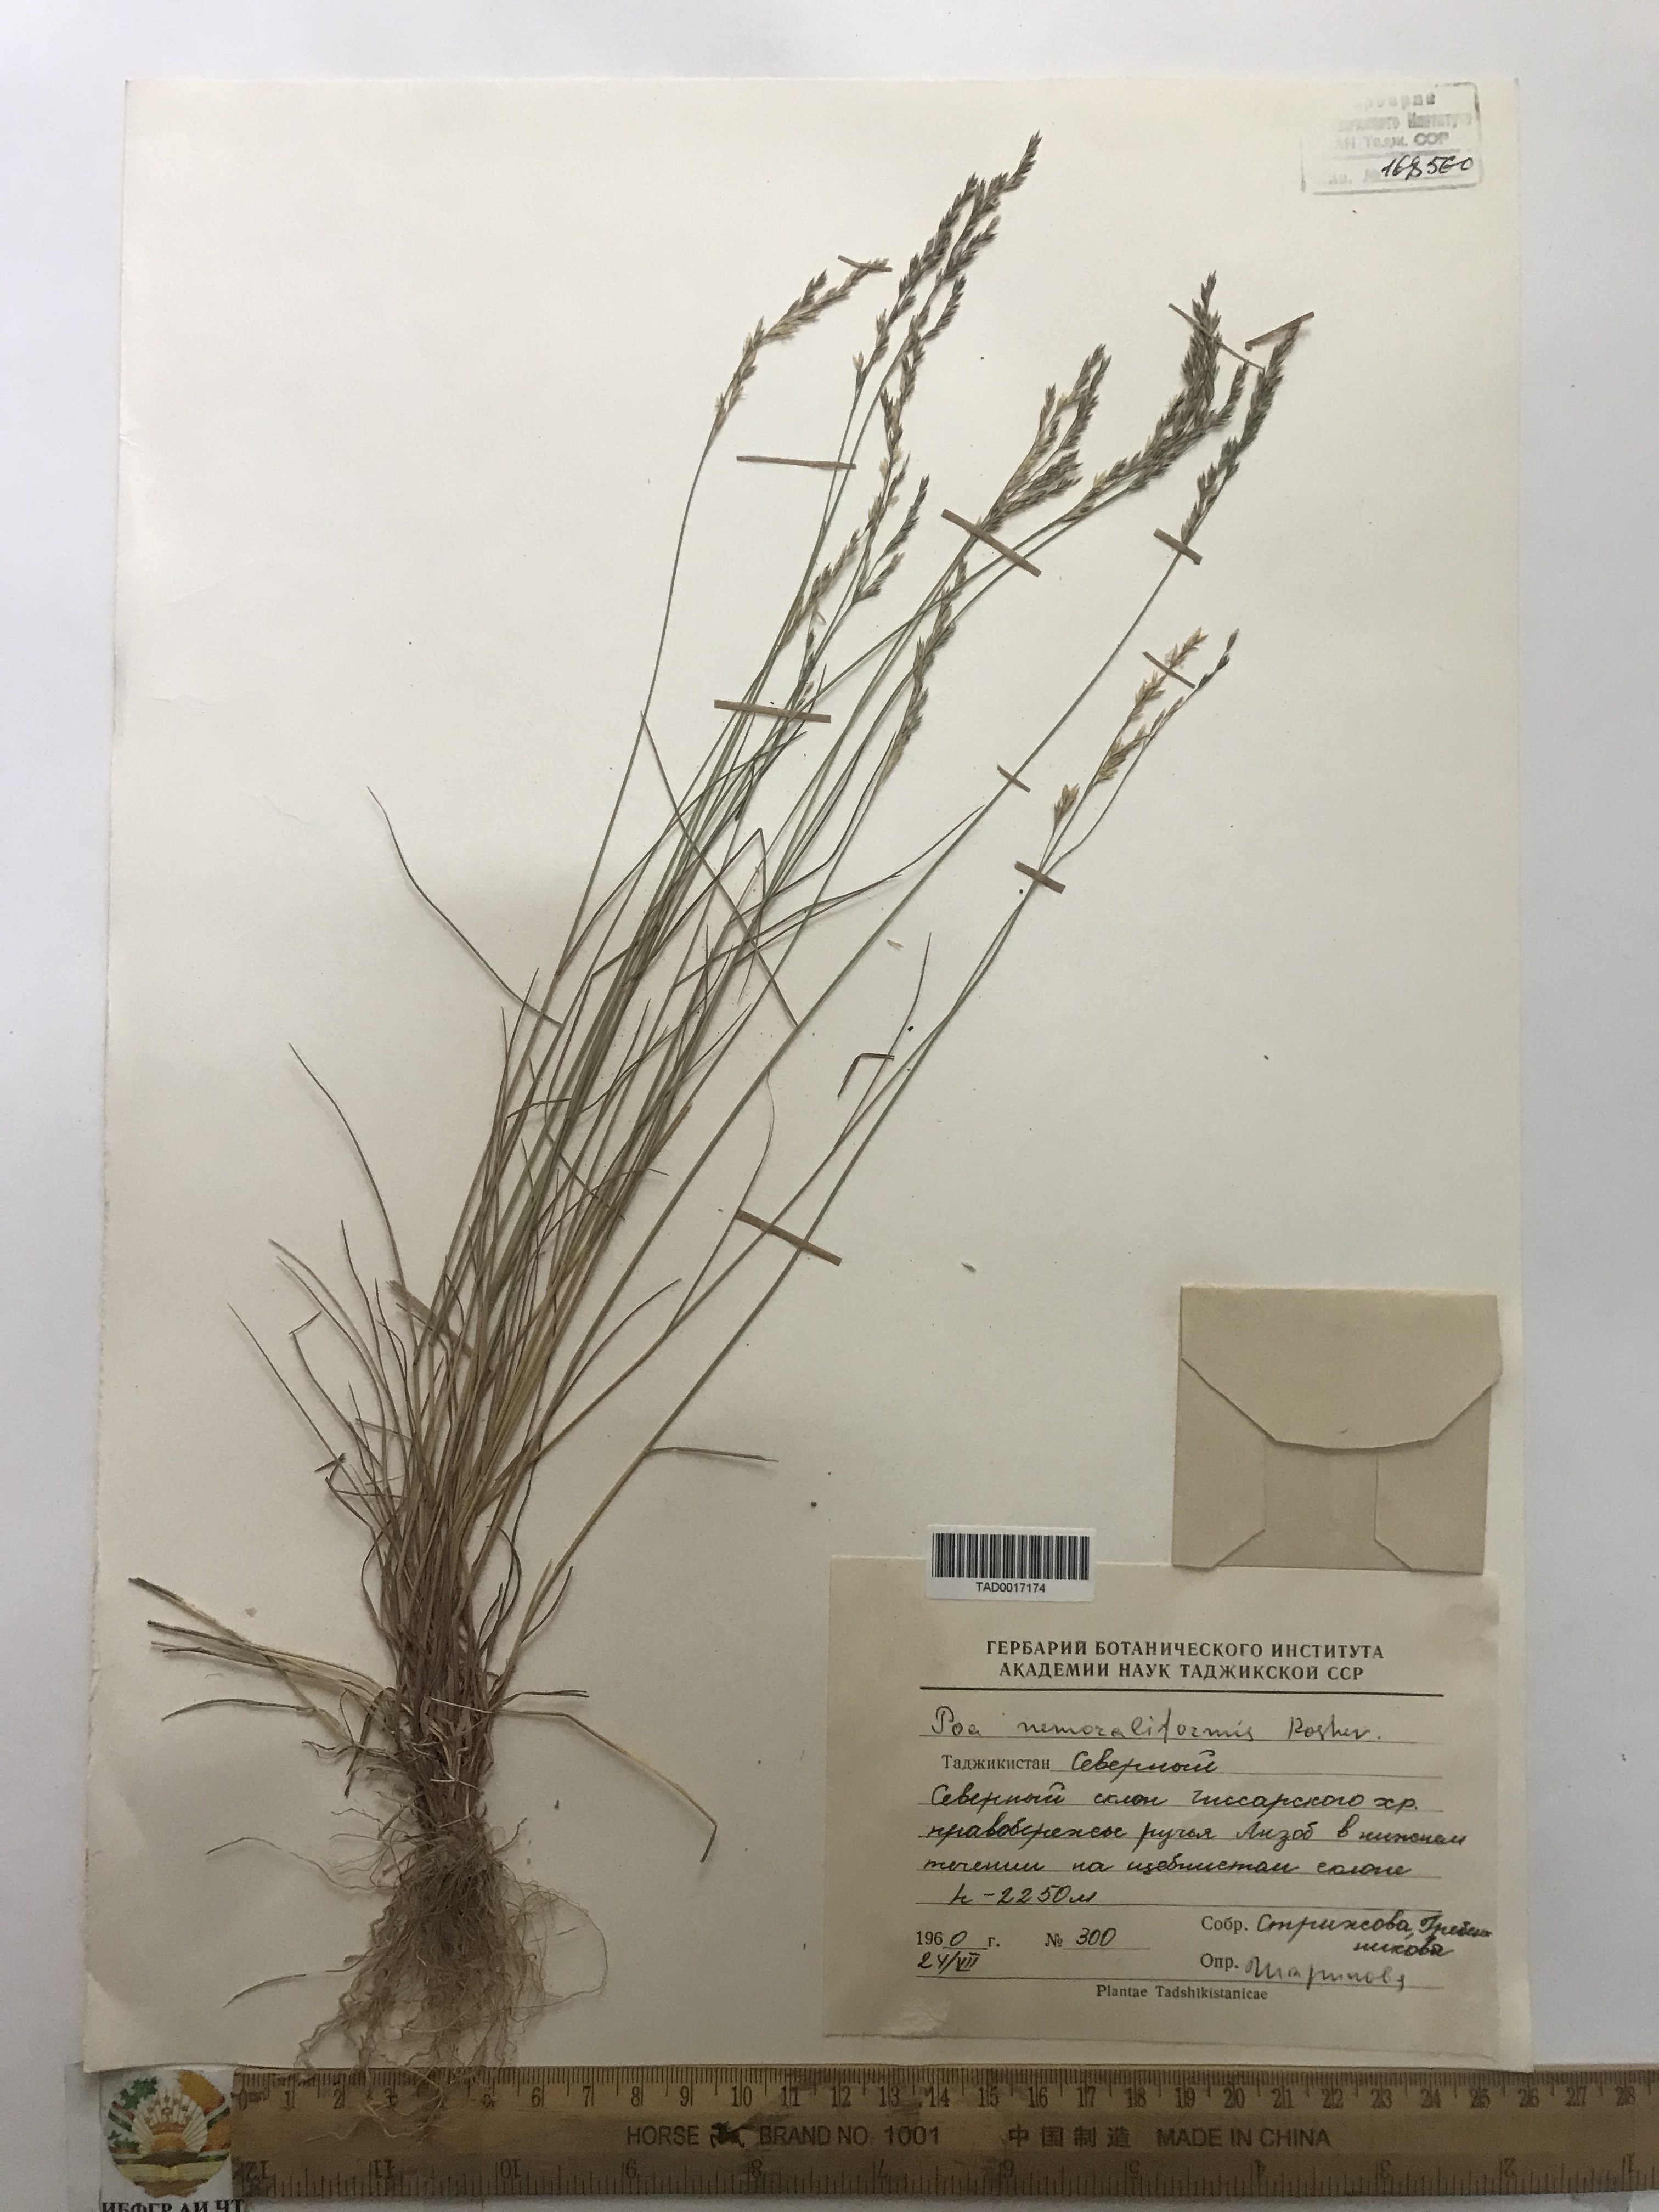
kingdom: Plantae
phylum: Tracheophyta
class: Liliopsida
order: Poales
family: Poaceae
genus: Poa
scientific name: Poa urssulensis
